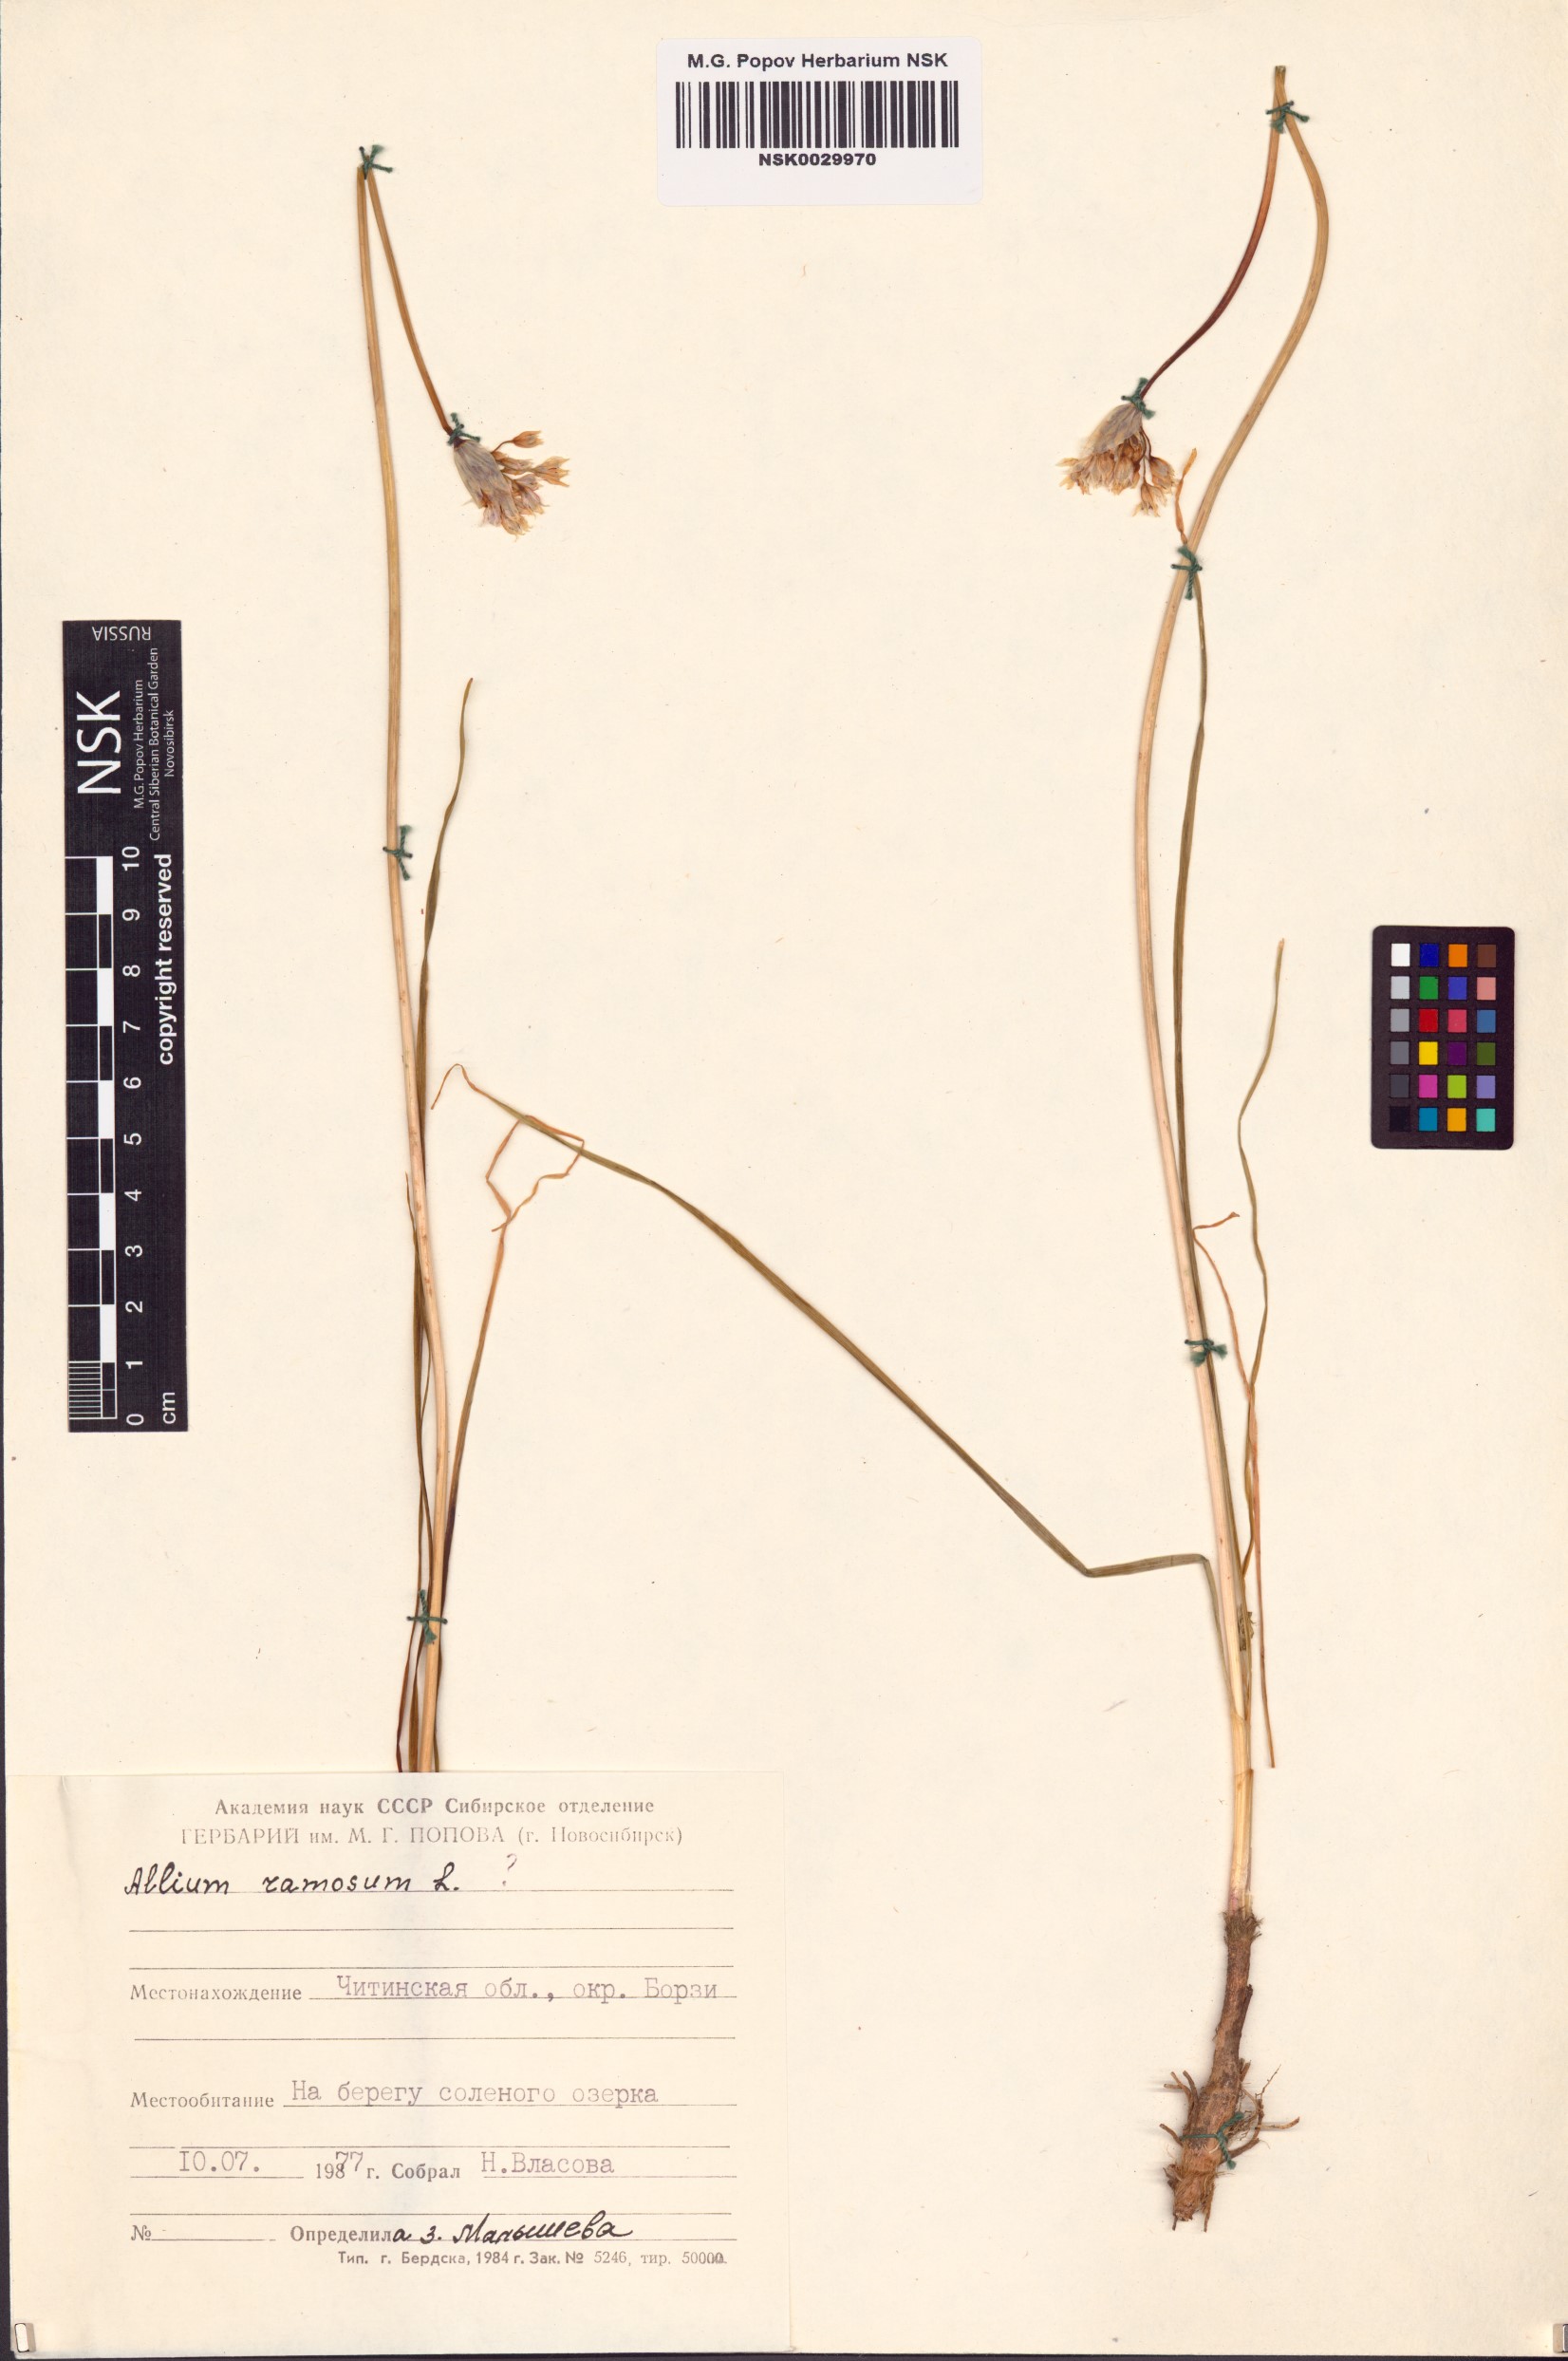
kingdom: Plantae
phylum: Tracheophyta
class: Liliopsida
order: Asparagales
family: Amaryllidaceae
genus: Allium
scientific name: Allium ramosum
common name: Fragrant garlic
